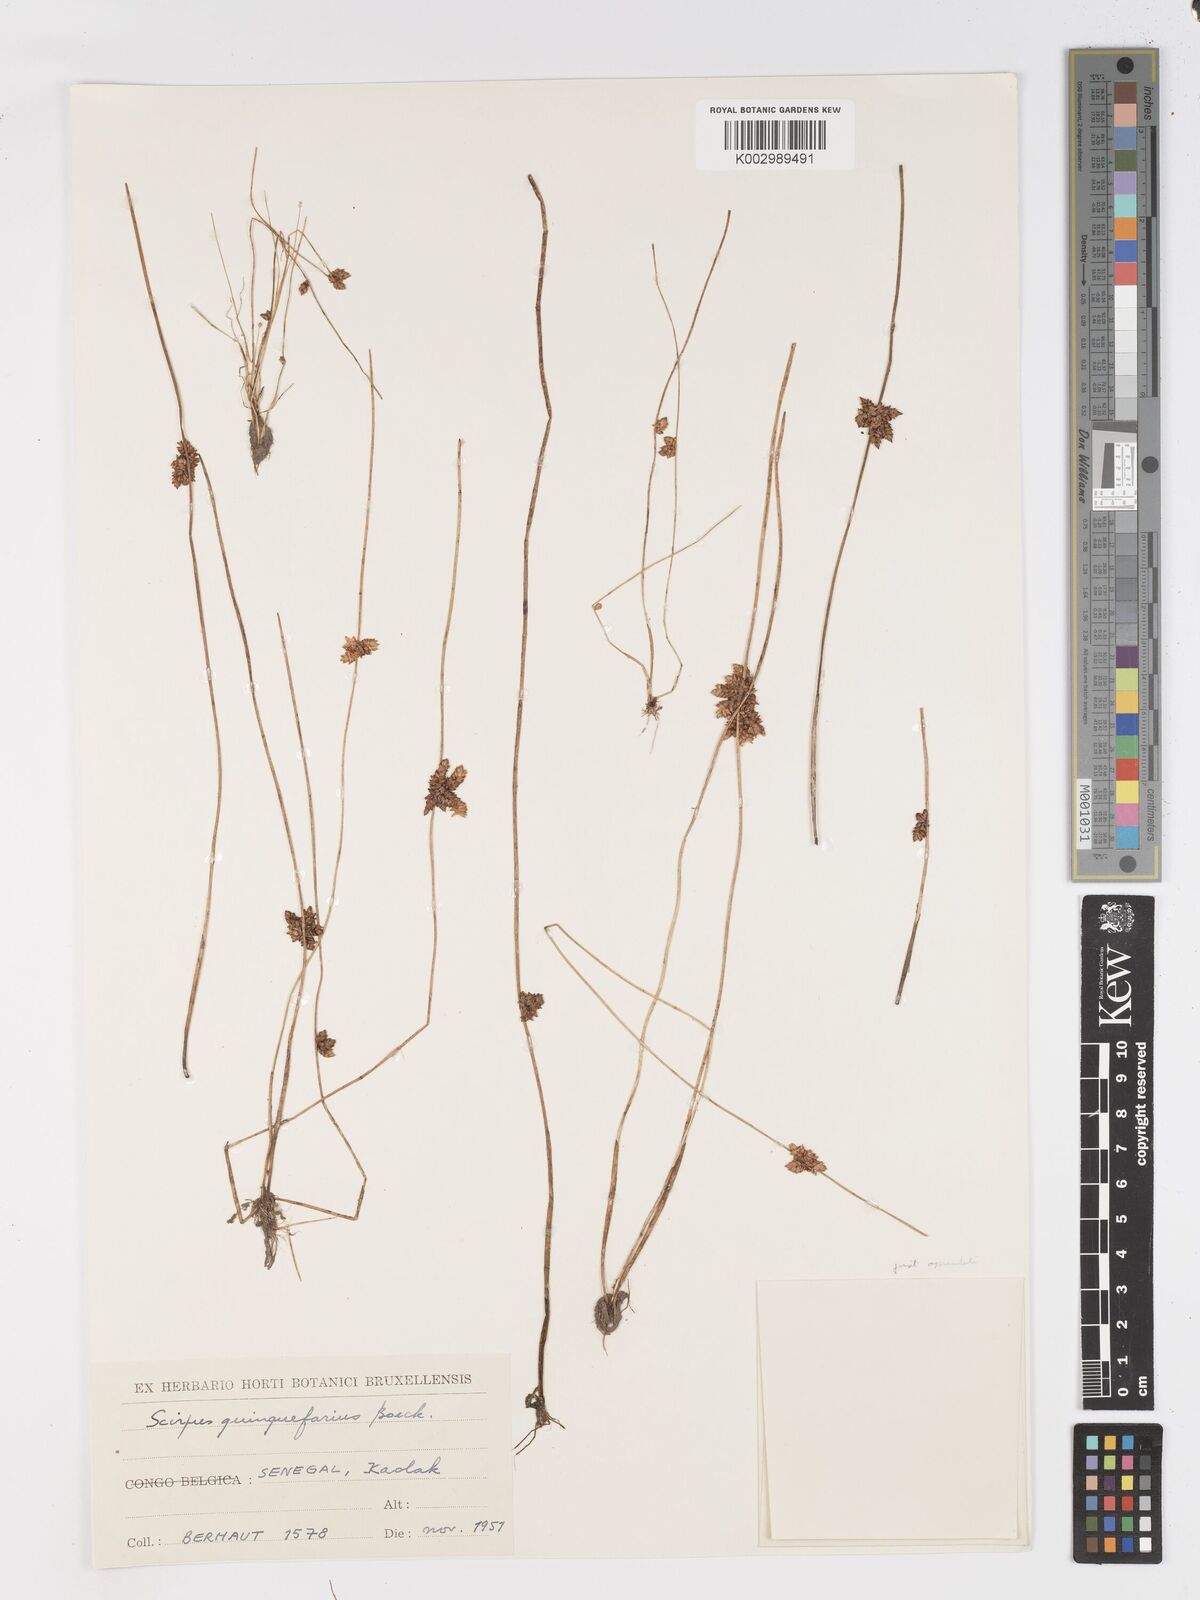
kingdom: Plantae
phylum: Tracheophyta
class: Liliopsida
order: Poales
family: Cyperaceae
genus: Schoenoplectiella
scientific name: Schoenoplectiella roylei
